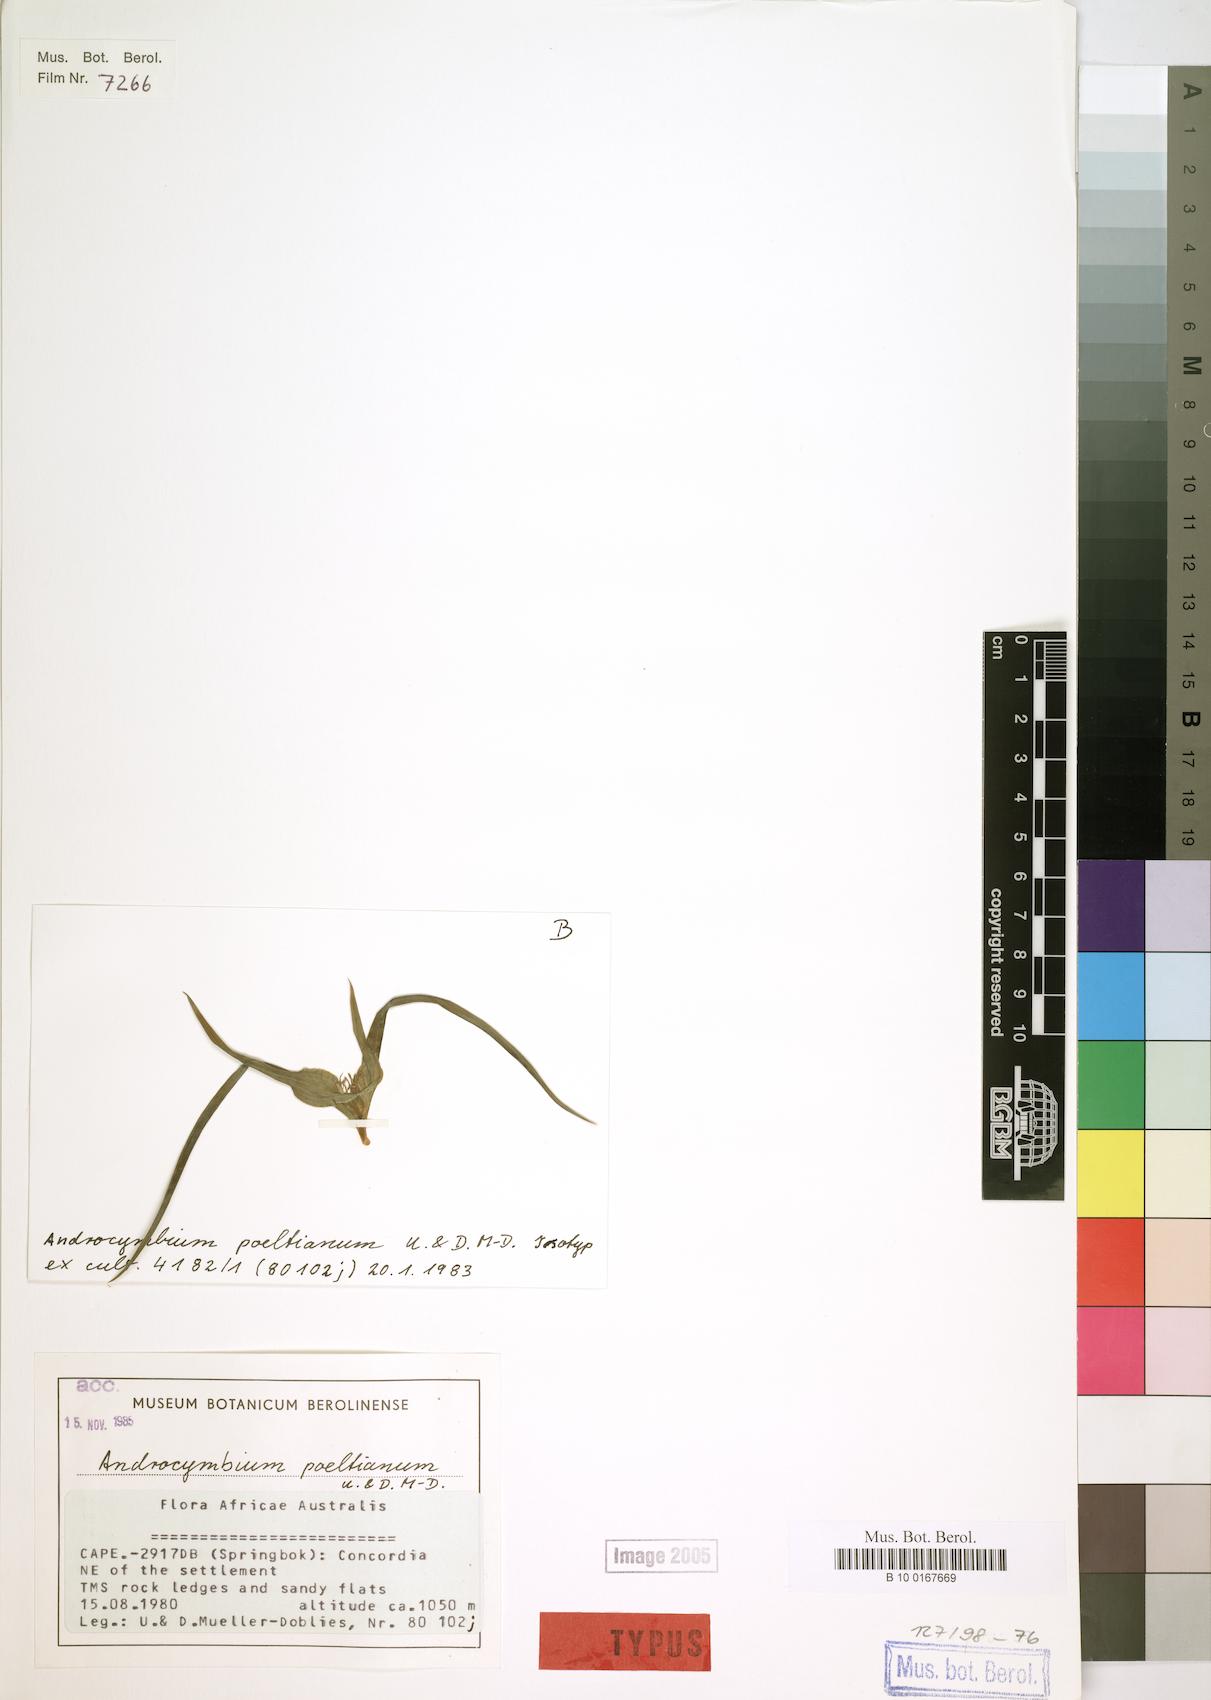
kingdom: Plantae
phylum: Tracheophyta
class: Liliopsida
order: Liliales
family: Colchicaceae
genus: Colchicum
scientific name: Colchicum poeltianum
